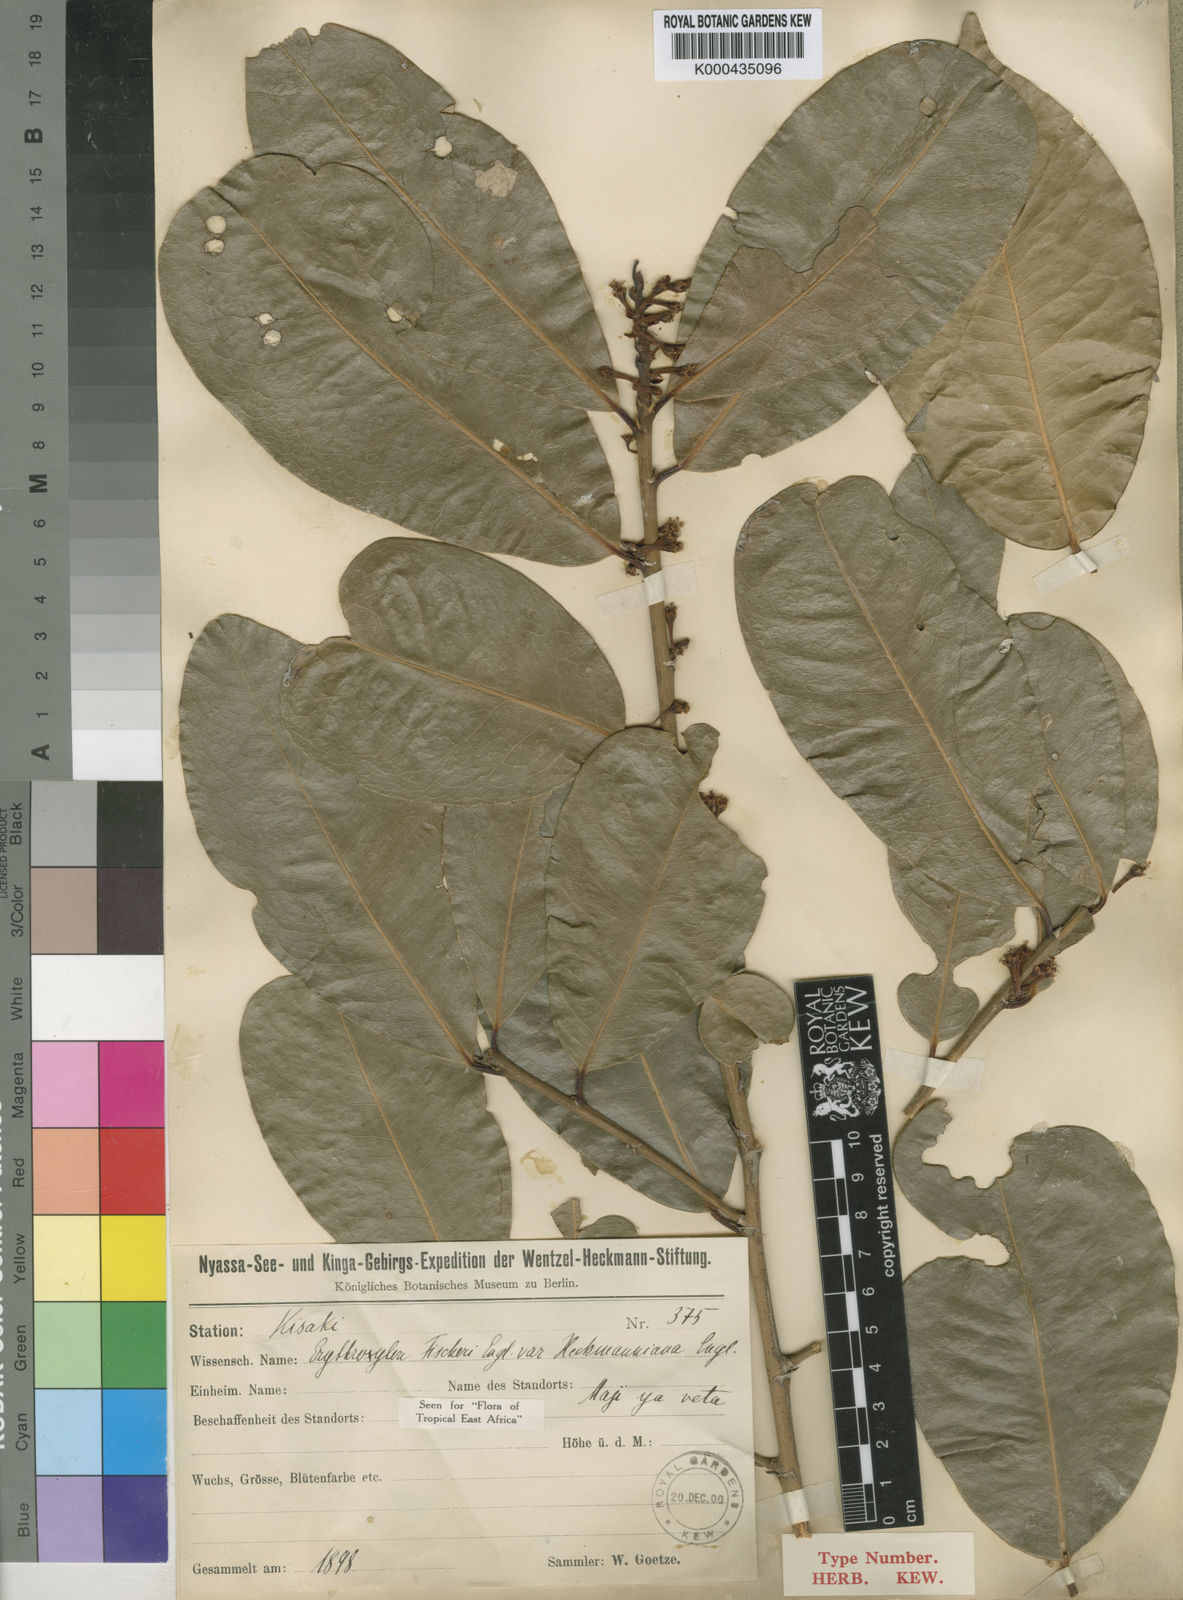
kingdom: Plantae
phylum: Tracheophyta
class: Magnoliopsida
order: Malpighiales
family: Erythroxylaceae
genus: Erythroxylum
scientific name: Erythroxylum fischeri
